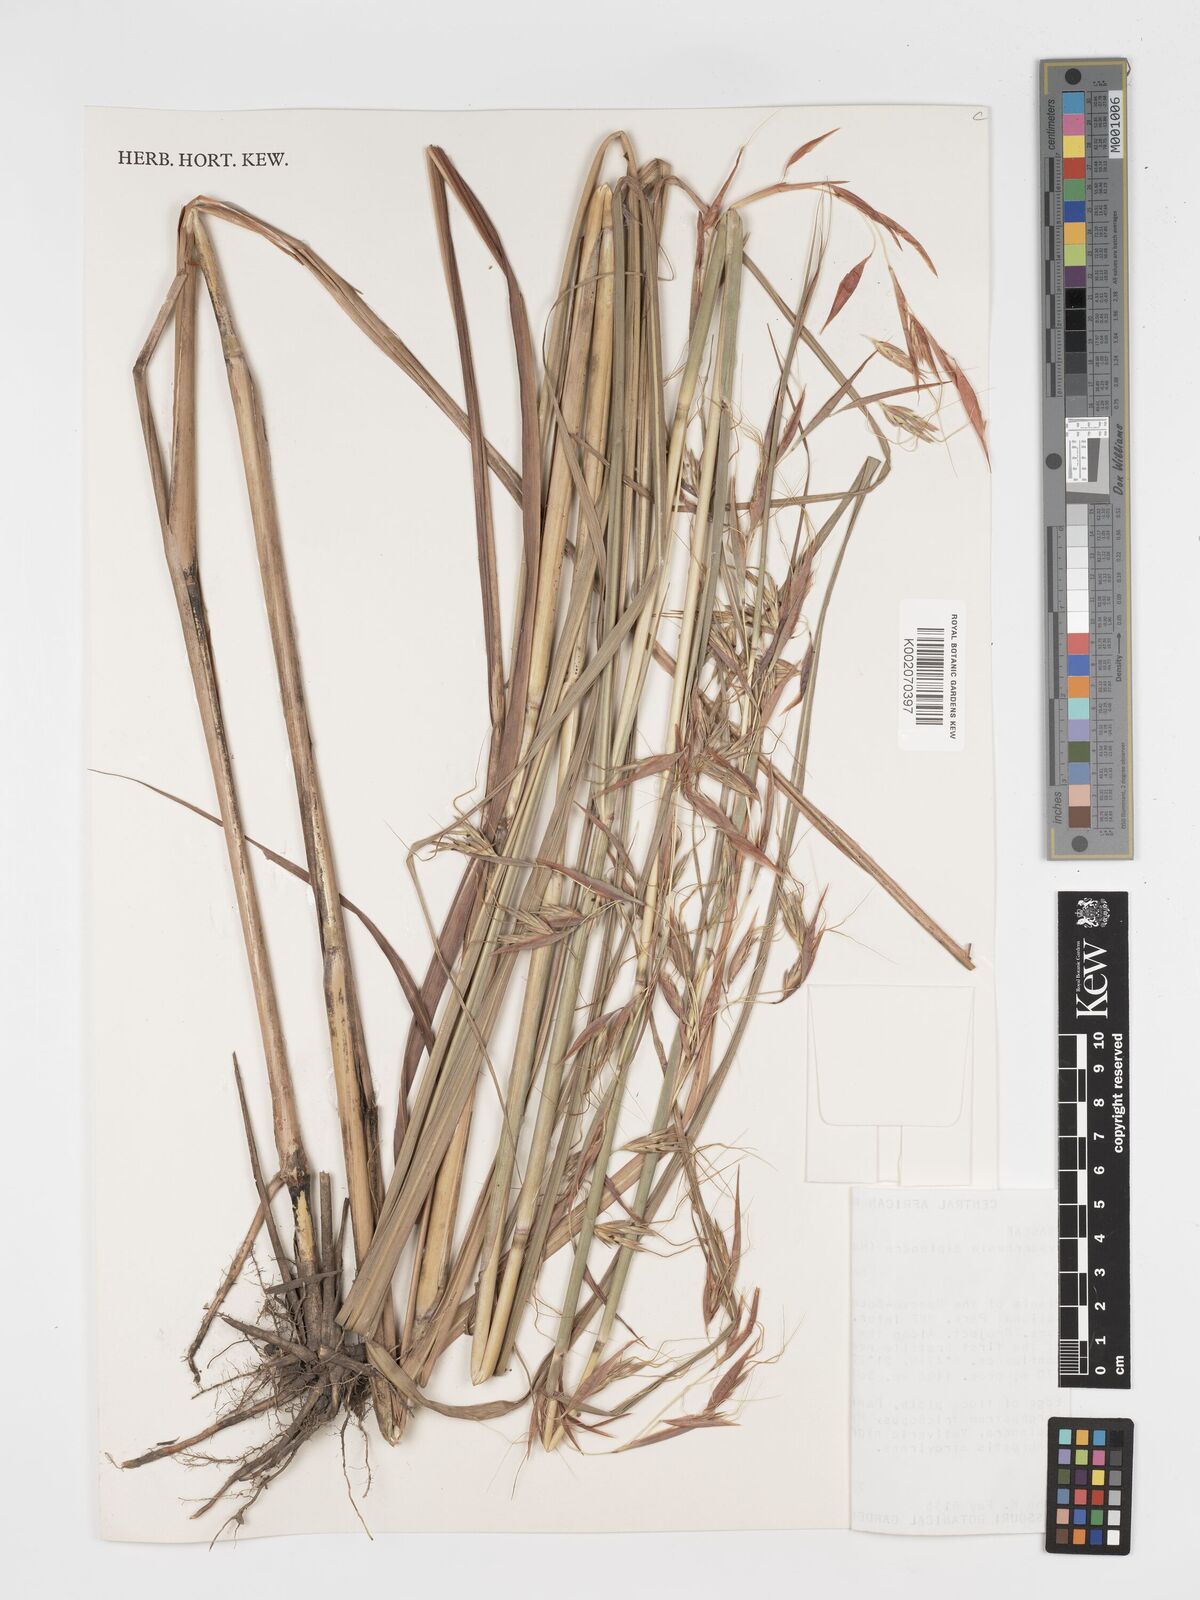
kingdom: Plantae
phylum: Tracheophyta
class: Liliopsida
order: Poales
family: Poaceae
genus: Hyparrhenia
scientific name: Hyparrhenia diplandra
